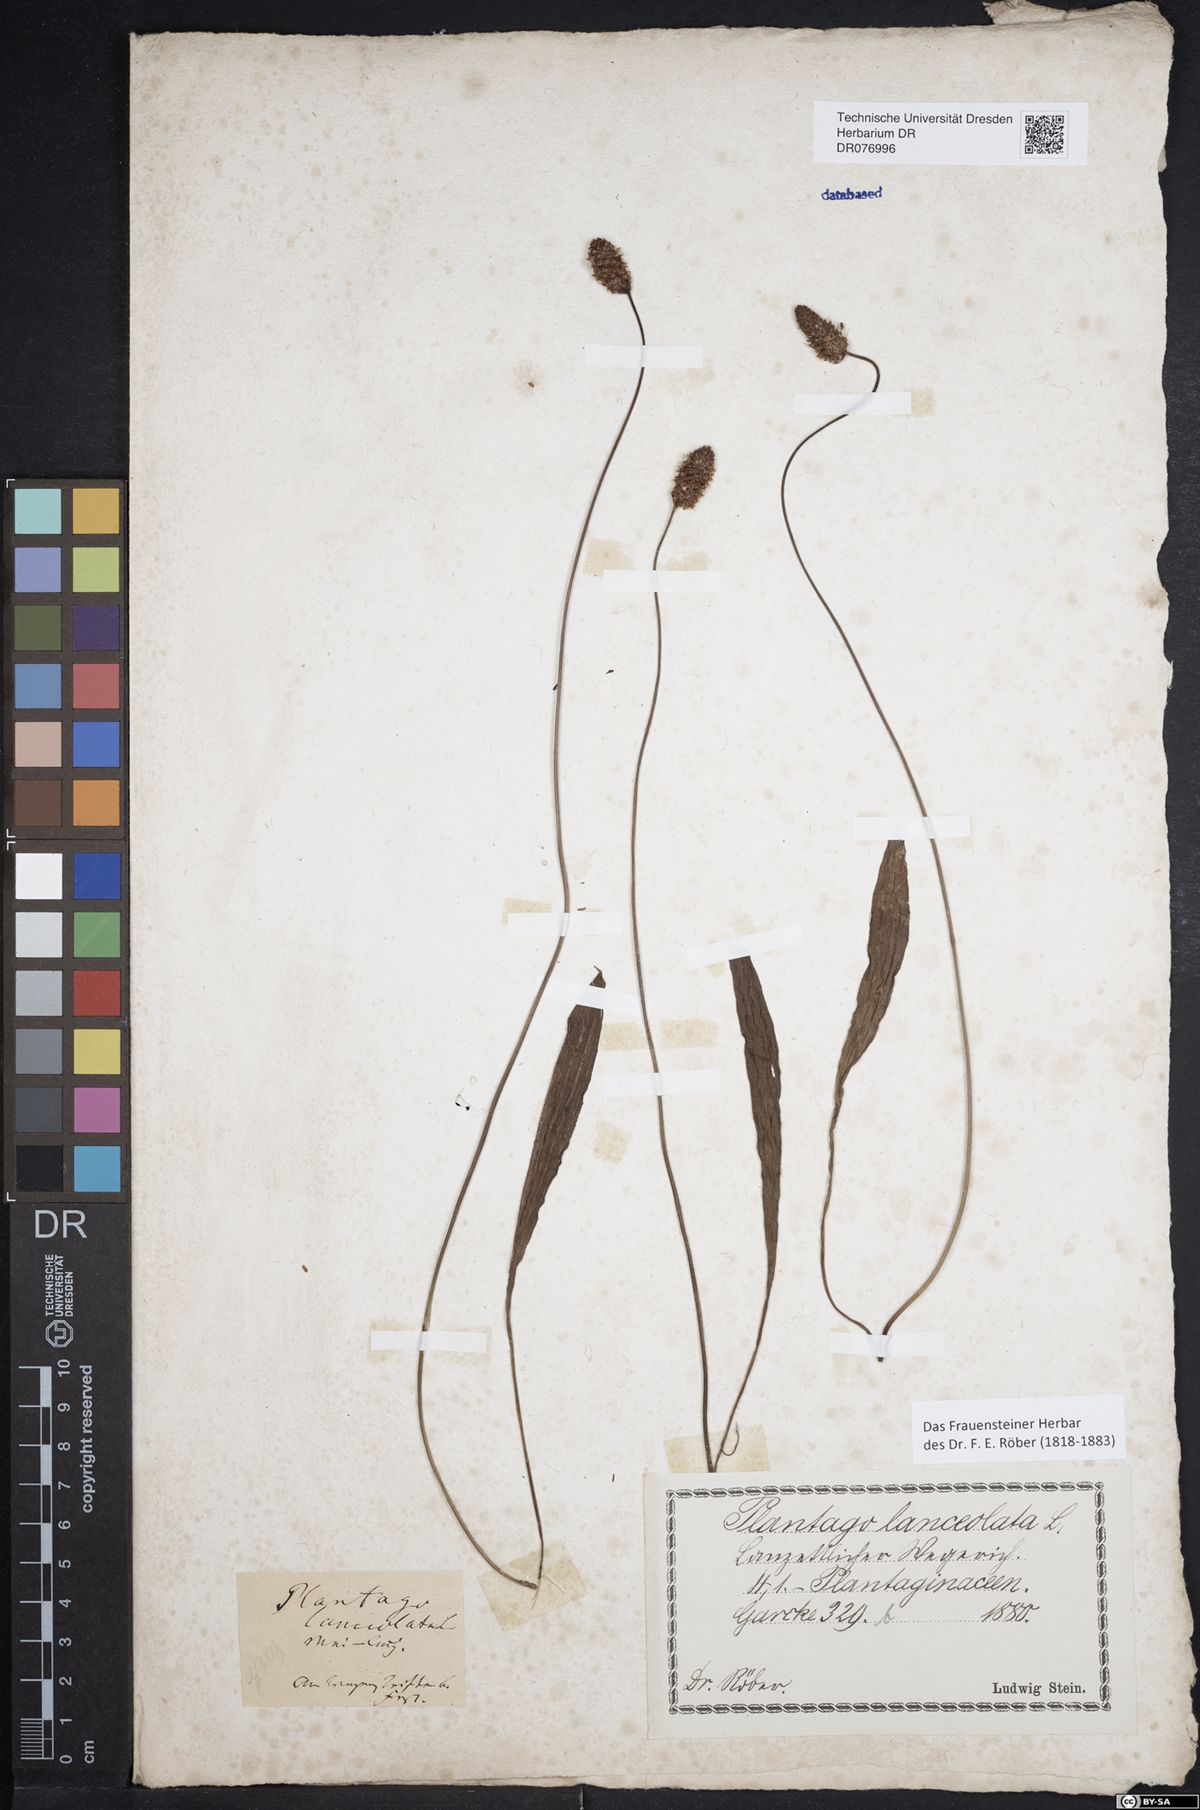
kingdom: Plantae
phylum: Tracheophyta
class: Magnoliopsida
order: Lamiales
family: Plantaginaceae
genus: Plantago
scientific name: Plantago lanceolata
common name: Ribwort plantain
